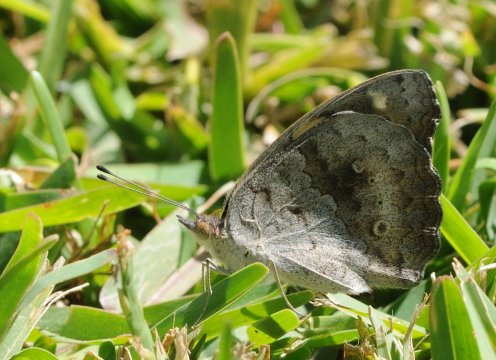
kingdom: Animalia
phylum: Arthropoda
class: Insecta
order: Lepidoptera
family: Nymphalidae
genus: Junonia
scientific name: Junonia hierta
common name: Yellow Pansy
